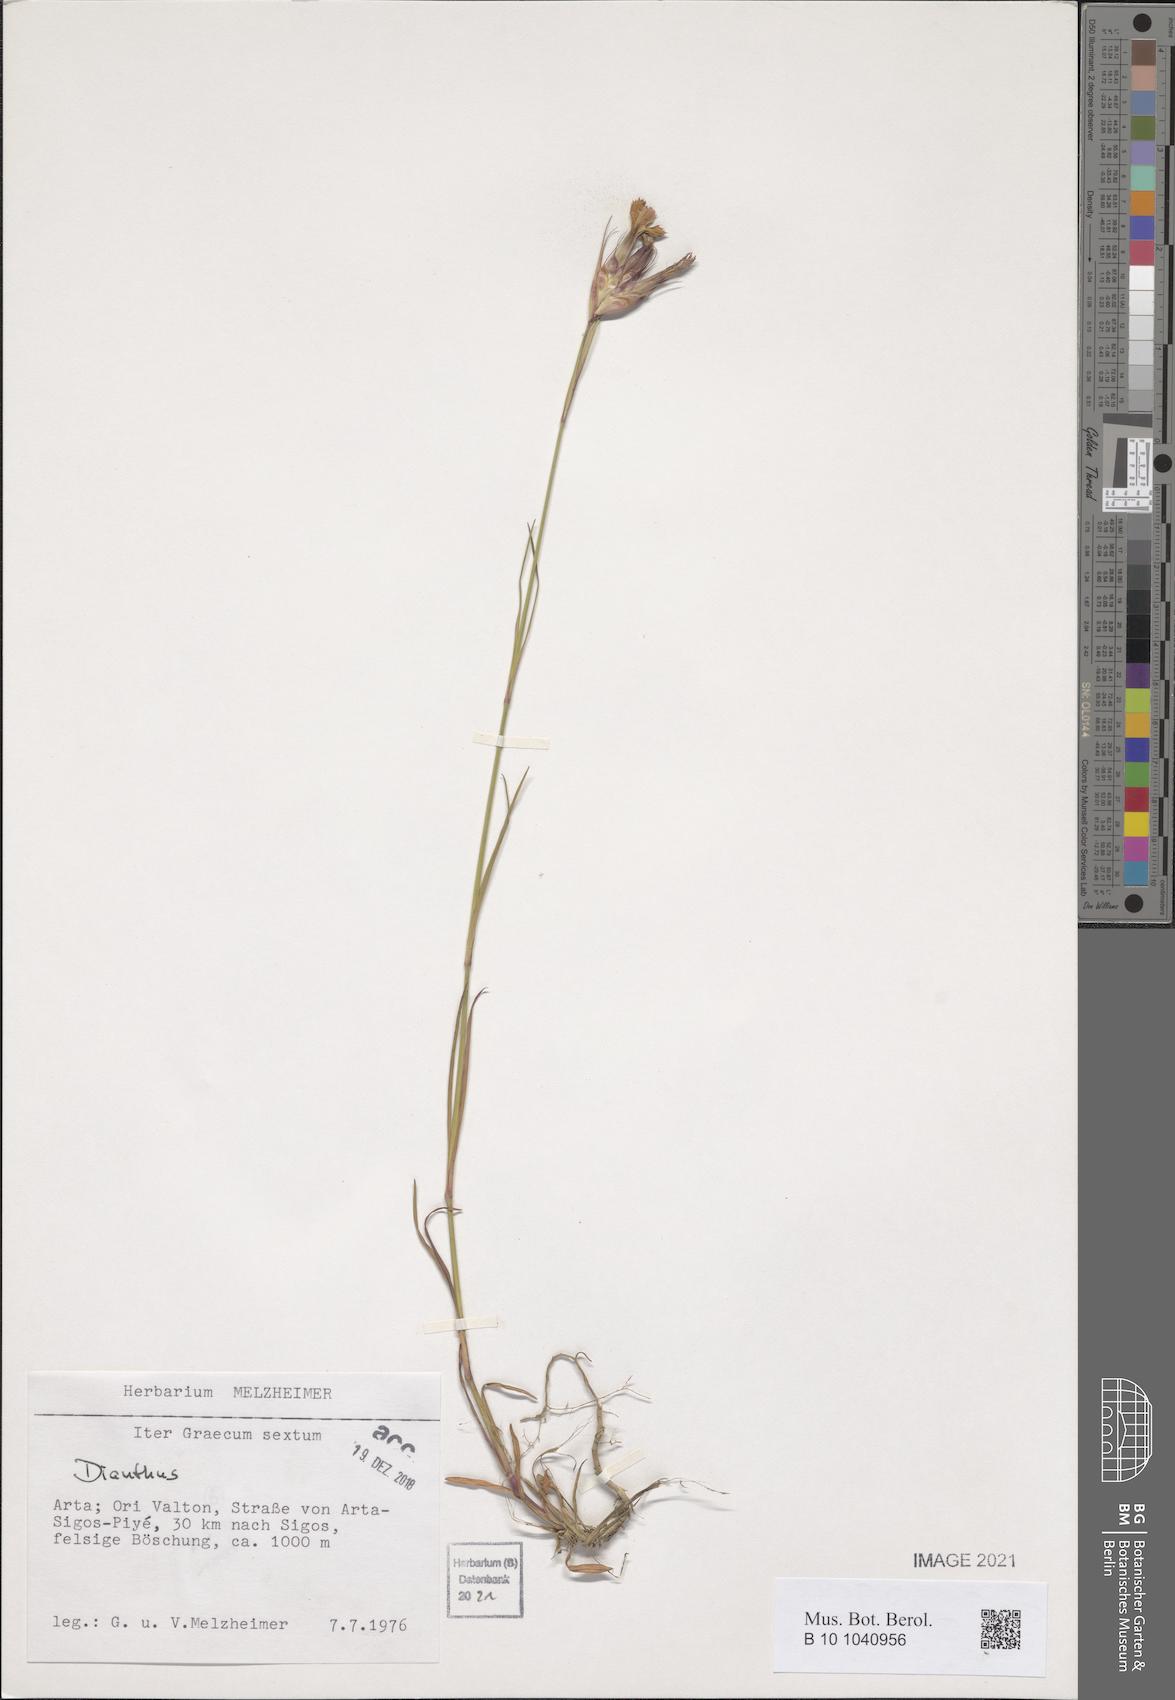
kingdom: Plantae
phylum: Tracheophyta
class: Magnoliopsida
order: Caryophyllales
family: Caryophyllaceae
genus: Dianthus
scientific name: Dianthus
